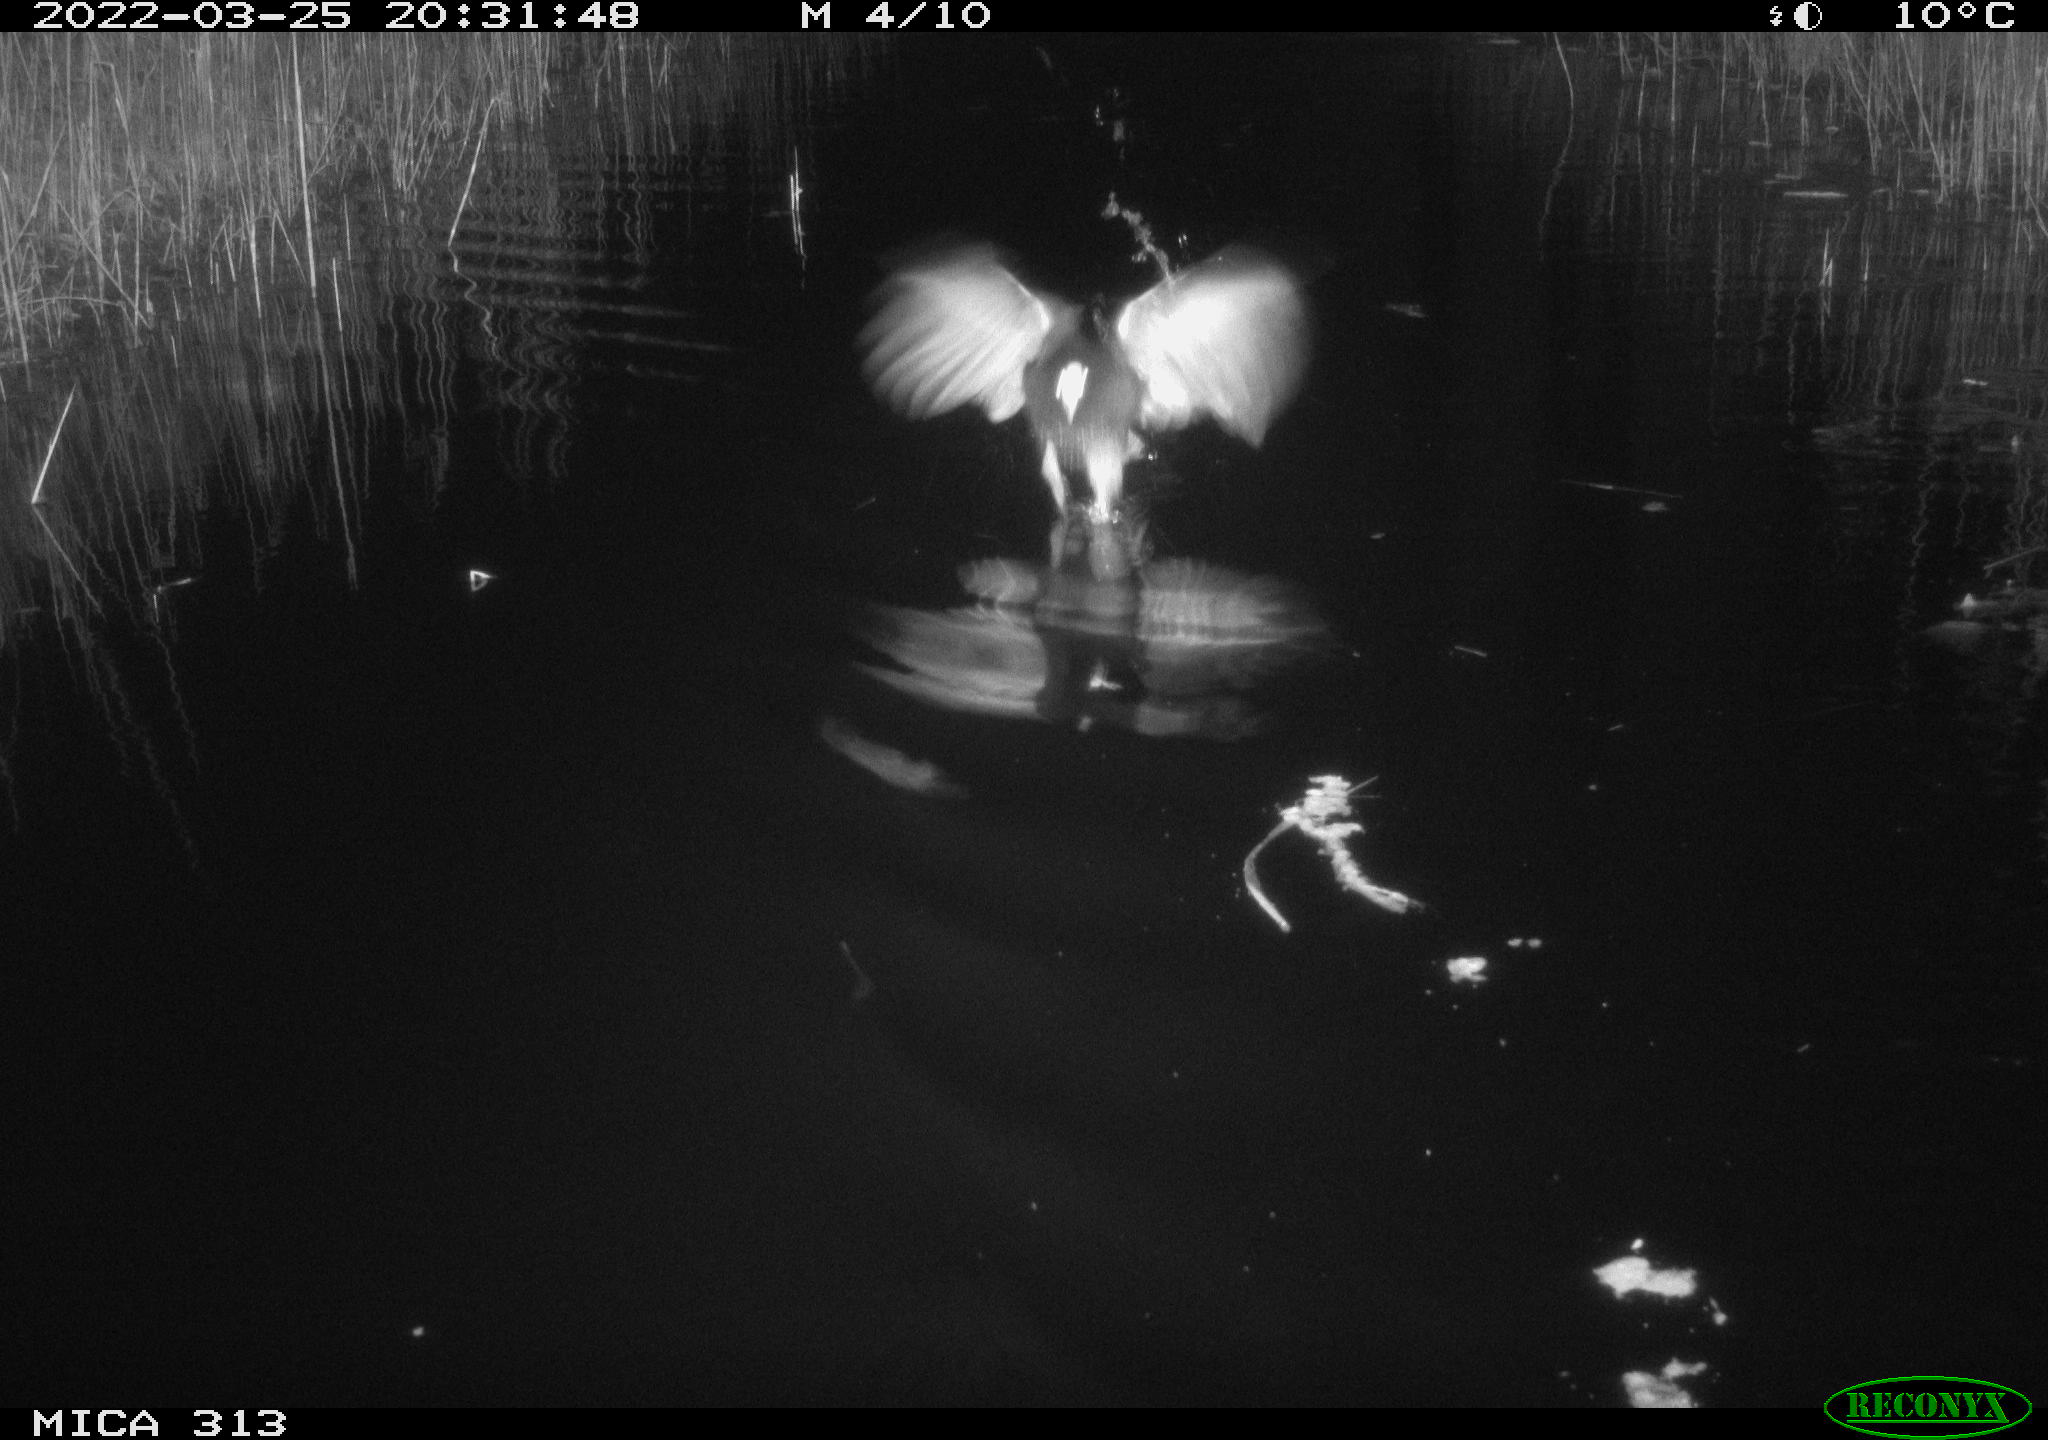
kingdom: Animalia
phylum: Chordata
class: Aves
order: Gruiformes
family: Rallidae
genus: Gallinula
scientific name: Gallinula chloropus
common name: Common moorhen
